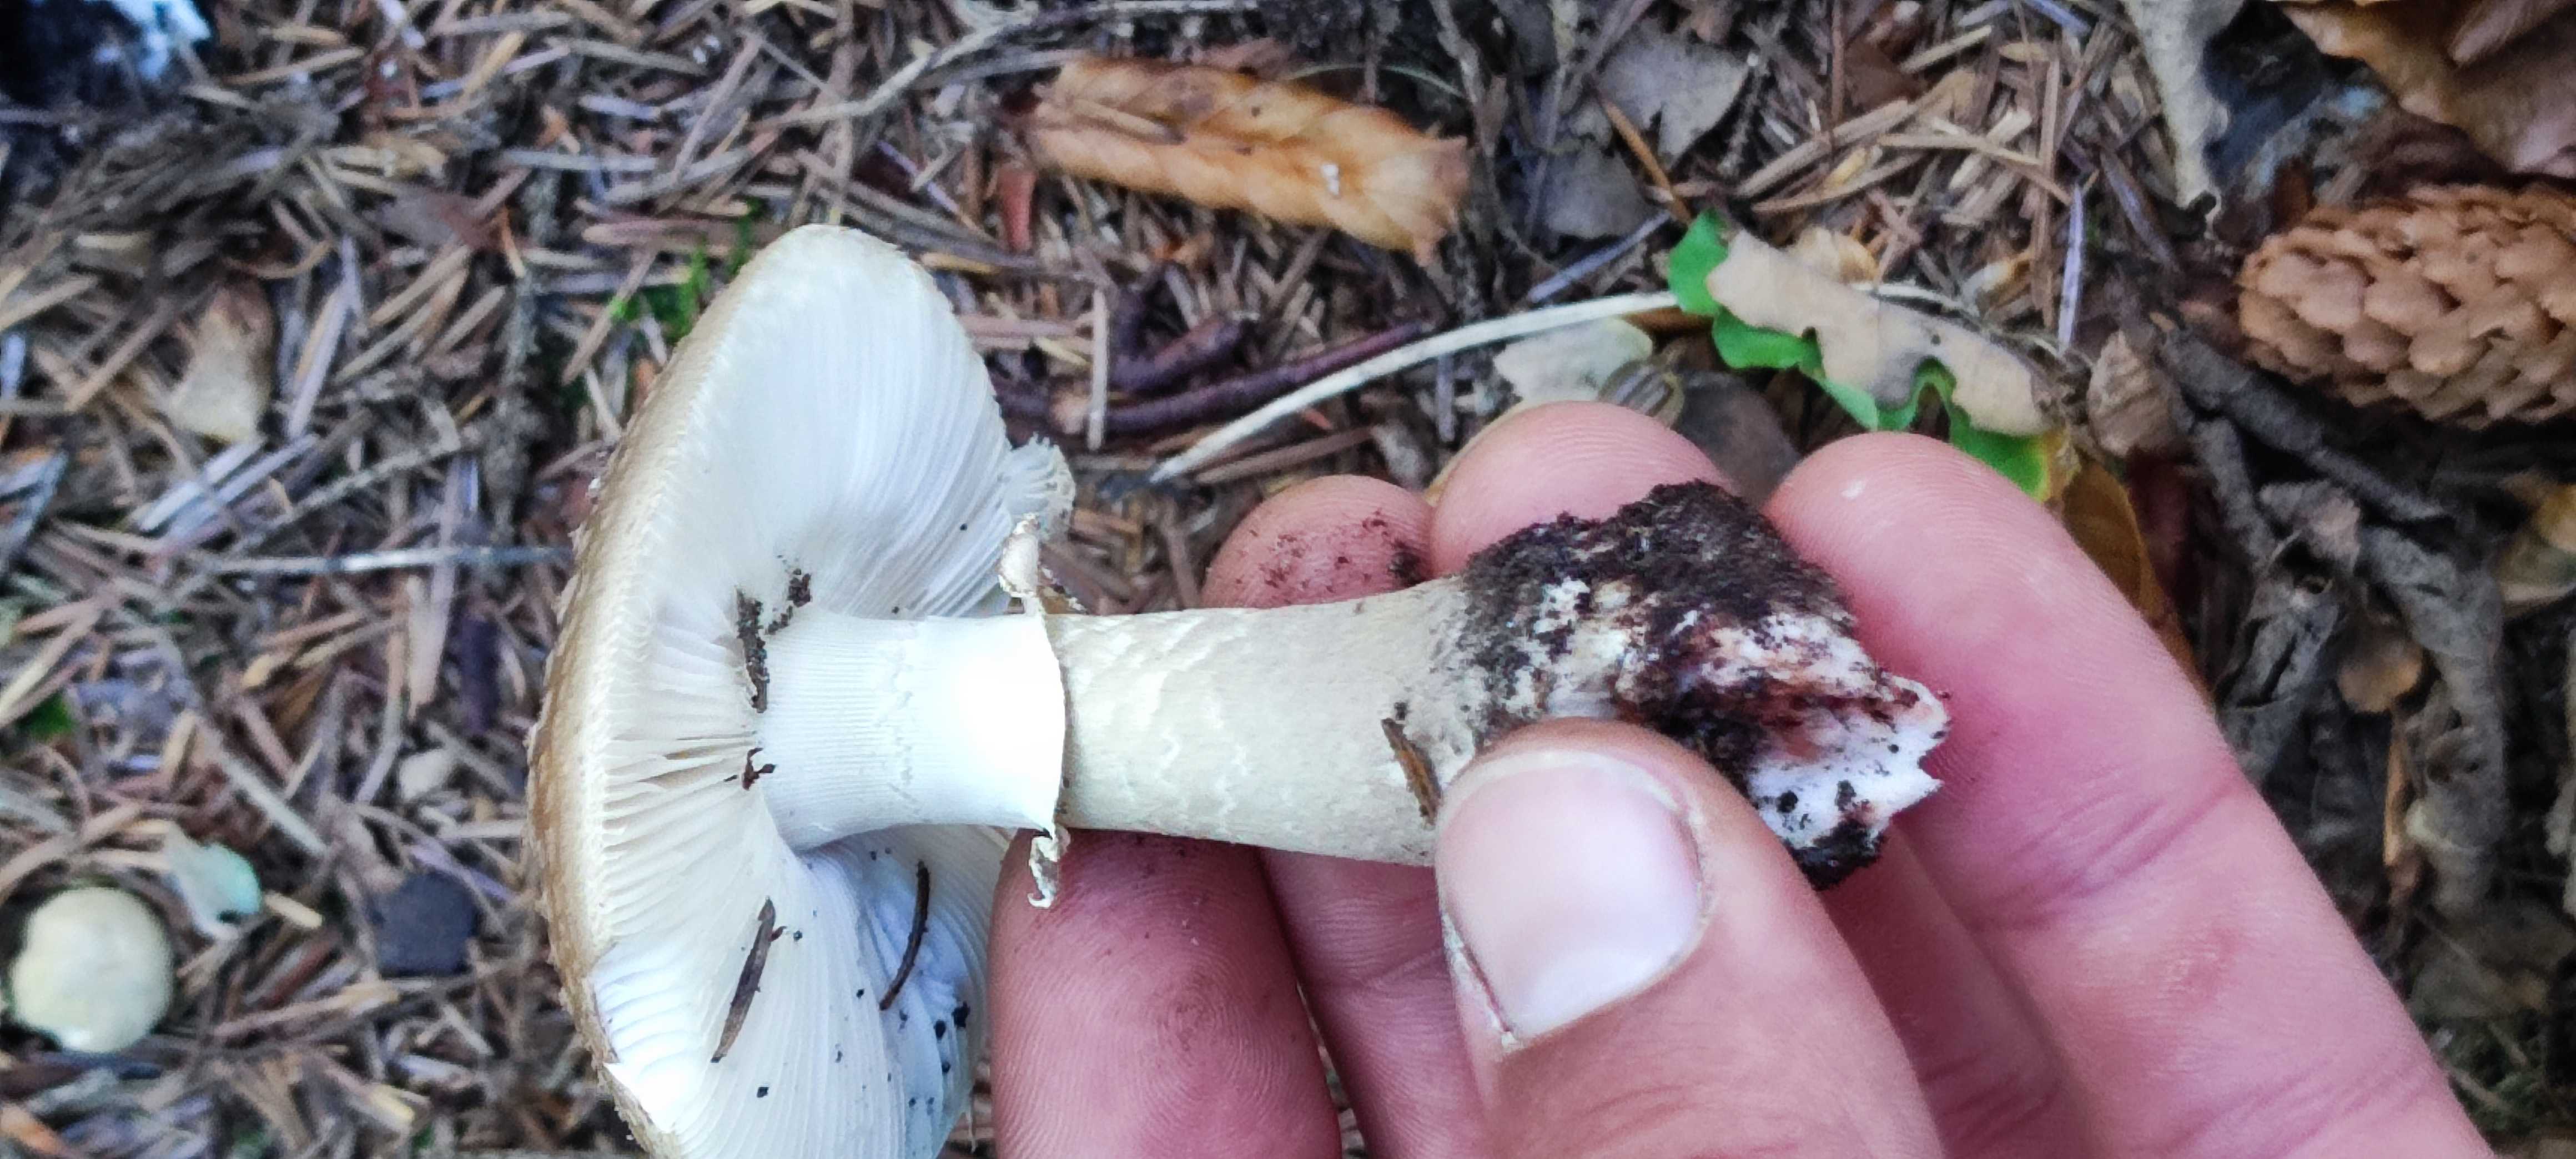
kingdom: Fungi
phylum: Basidiomycota
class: Agaricomycetes
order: Agaricales
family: Amanitaceae
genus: Amanita
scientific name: Amanita rubescens
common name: rødmende fluesvamp
